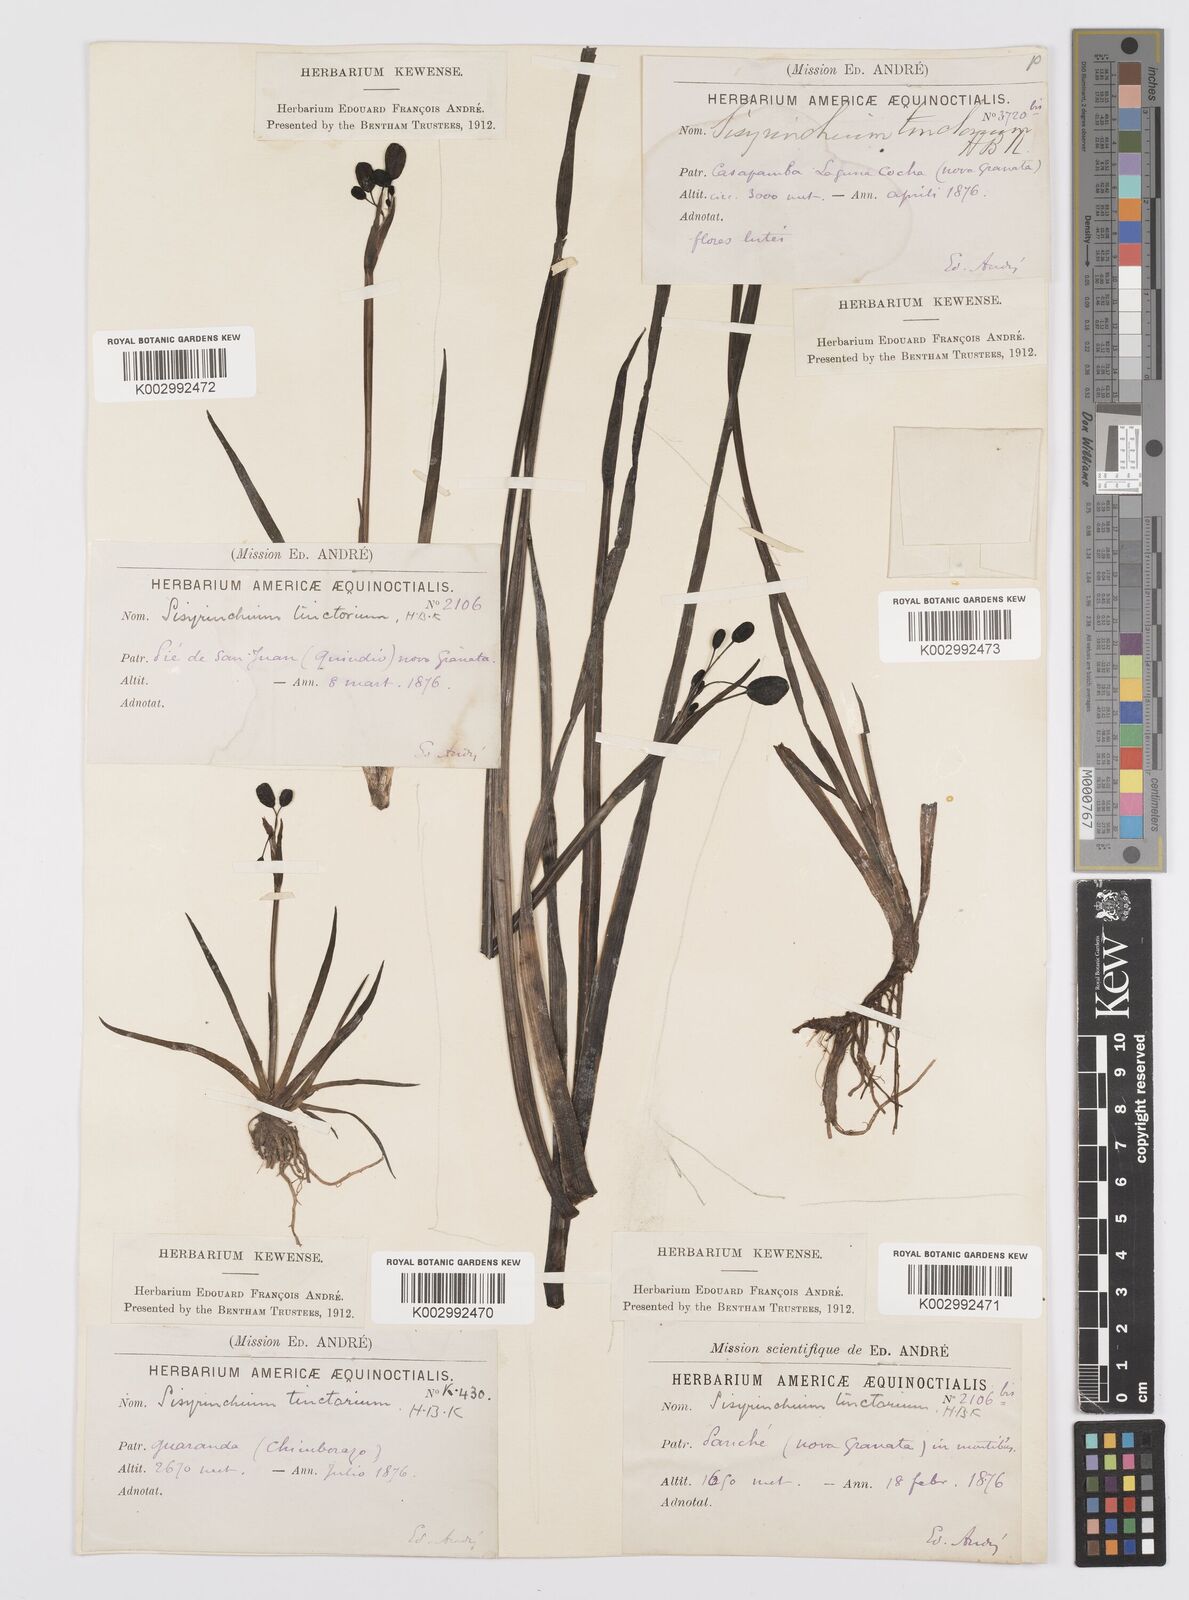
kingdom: Plantae
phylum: Tracheophyta
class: Liliopsida
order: Asparagales
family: Iridaceae
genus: Sisyrinchium
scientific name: Sisyrinchium tinctorium
